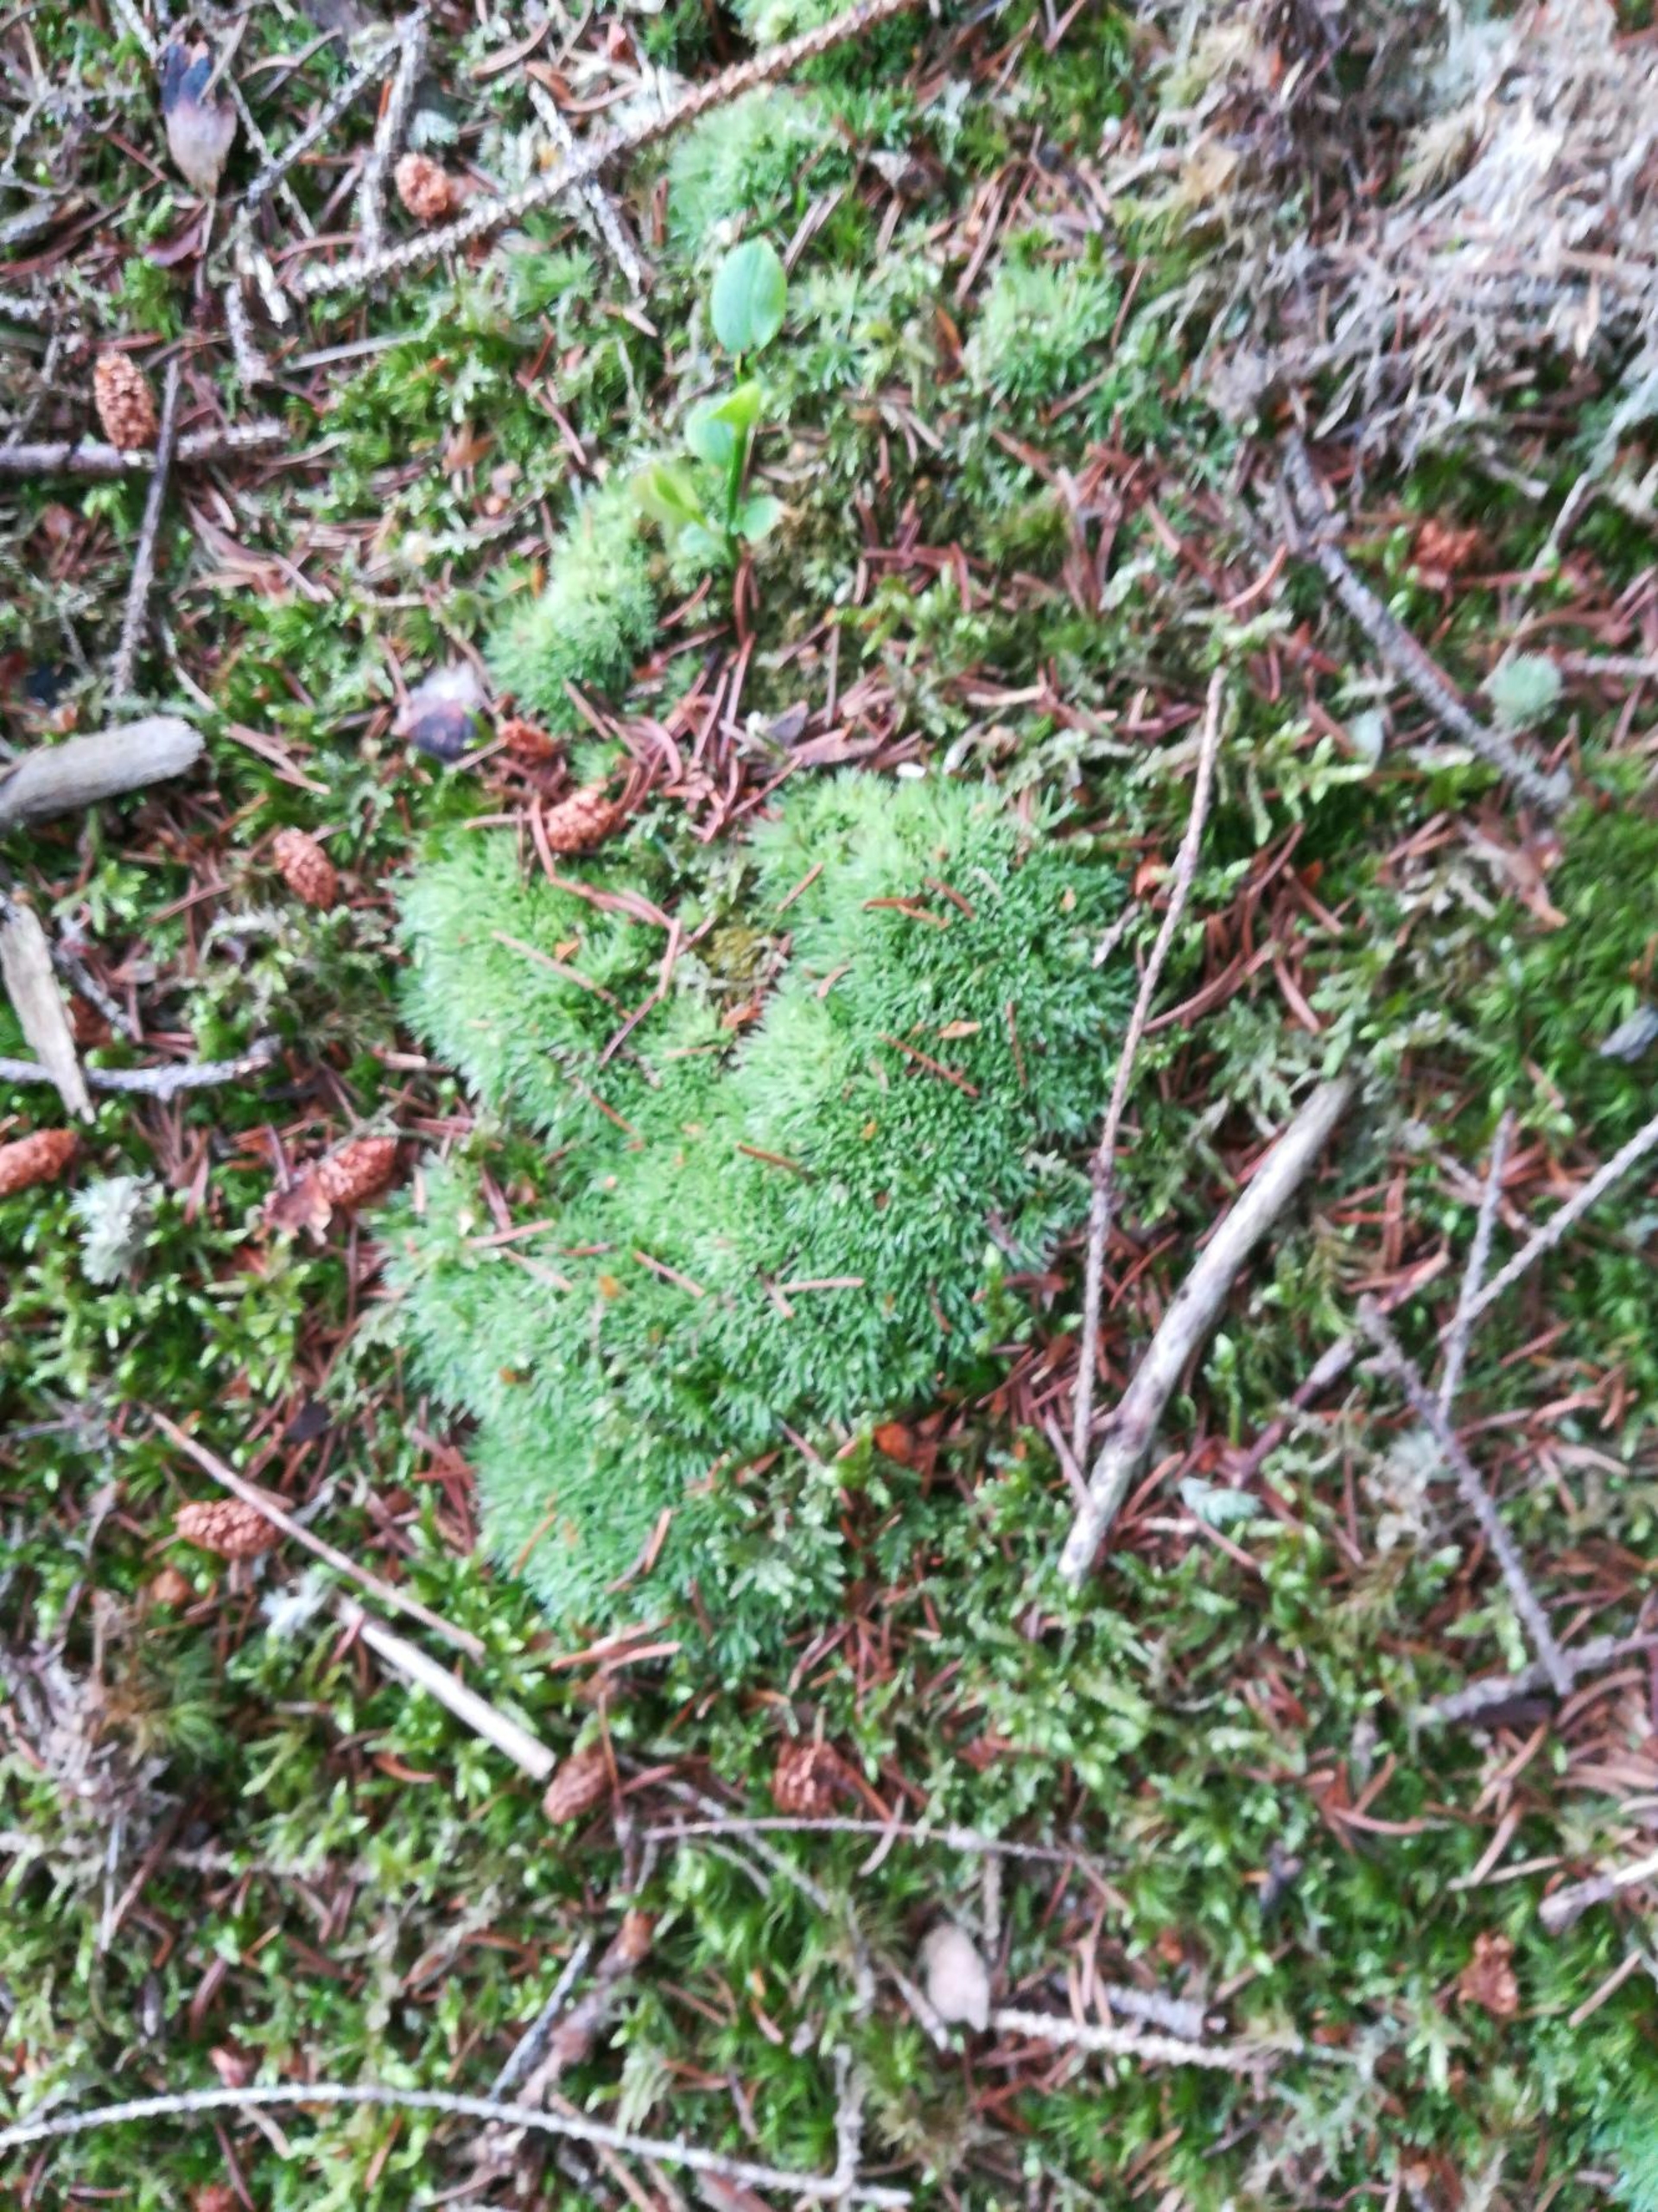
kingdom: Plantae
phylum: Bryophyta
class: Bryopsida
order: Dicranales
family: Leucobryaceae
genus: Leucobryum
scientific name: Leucobryum glaucum
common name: Almindelig hvidmos
